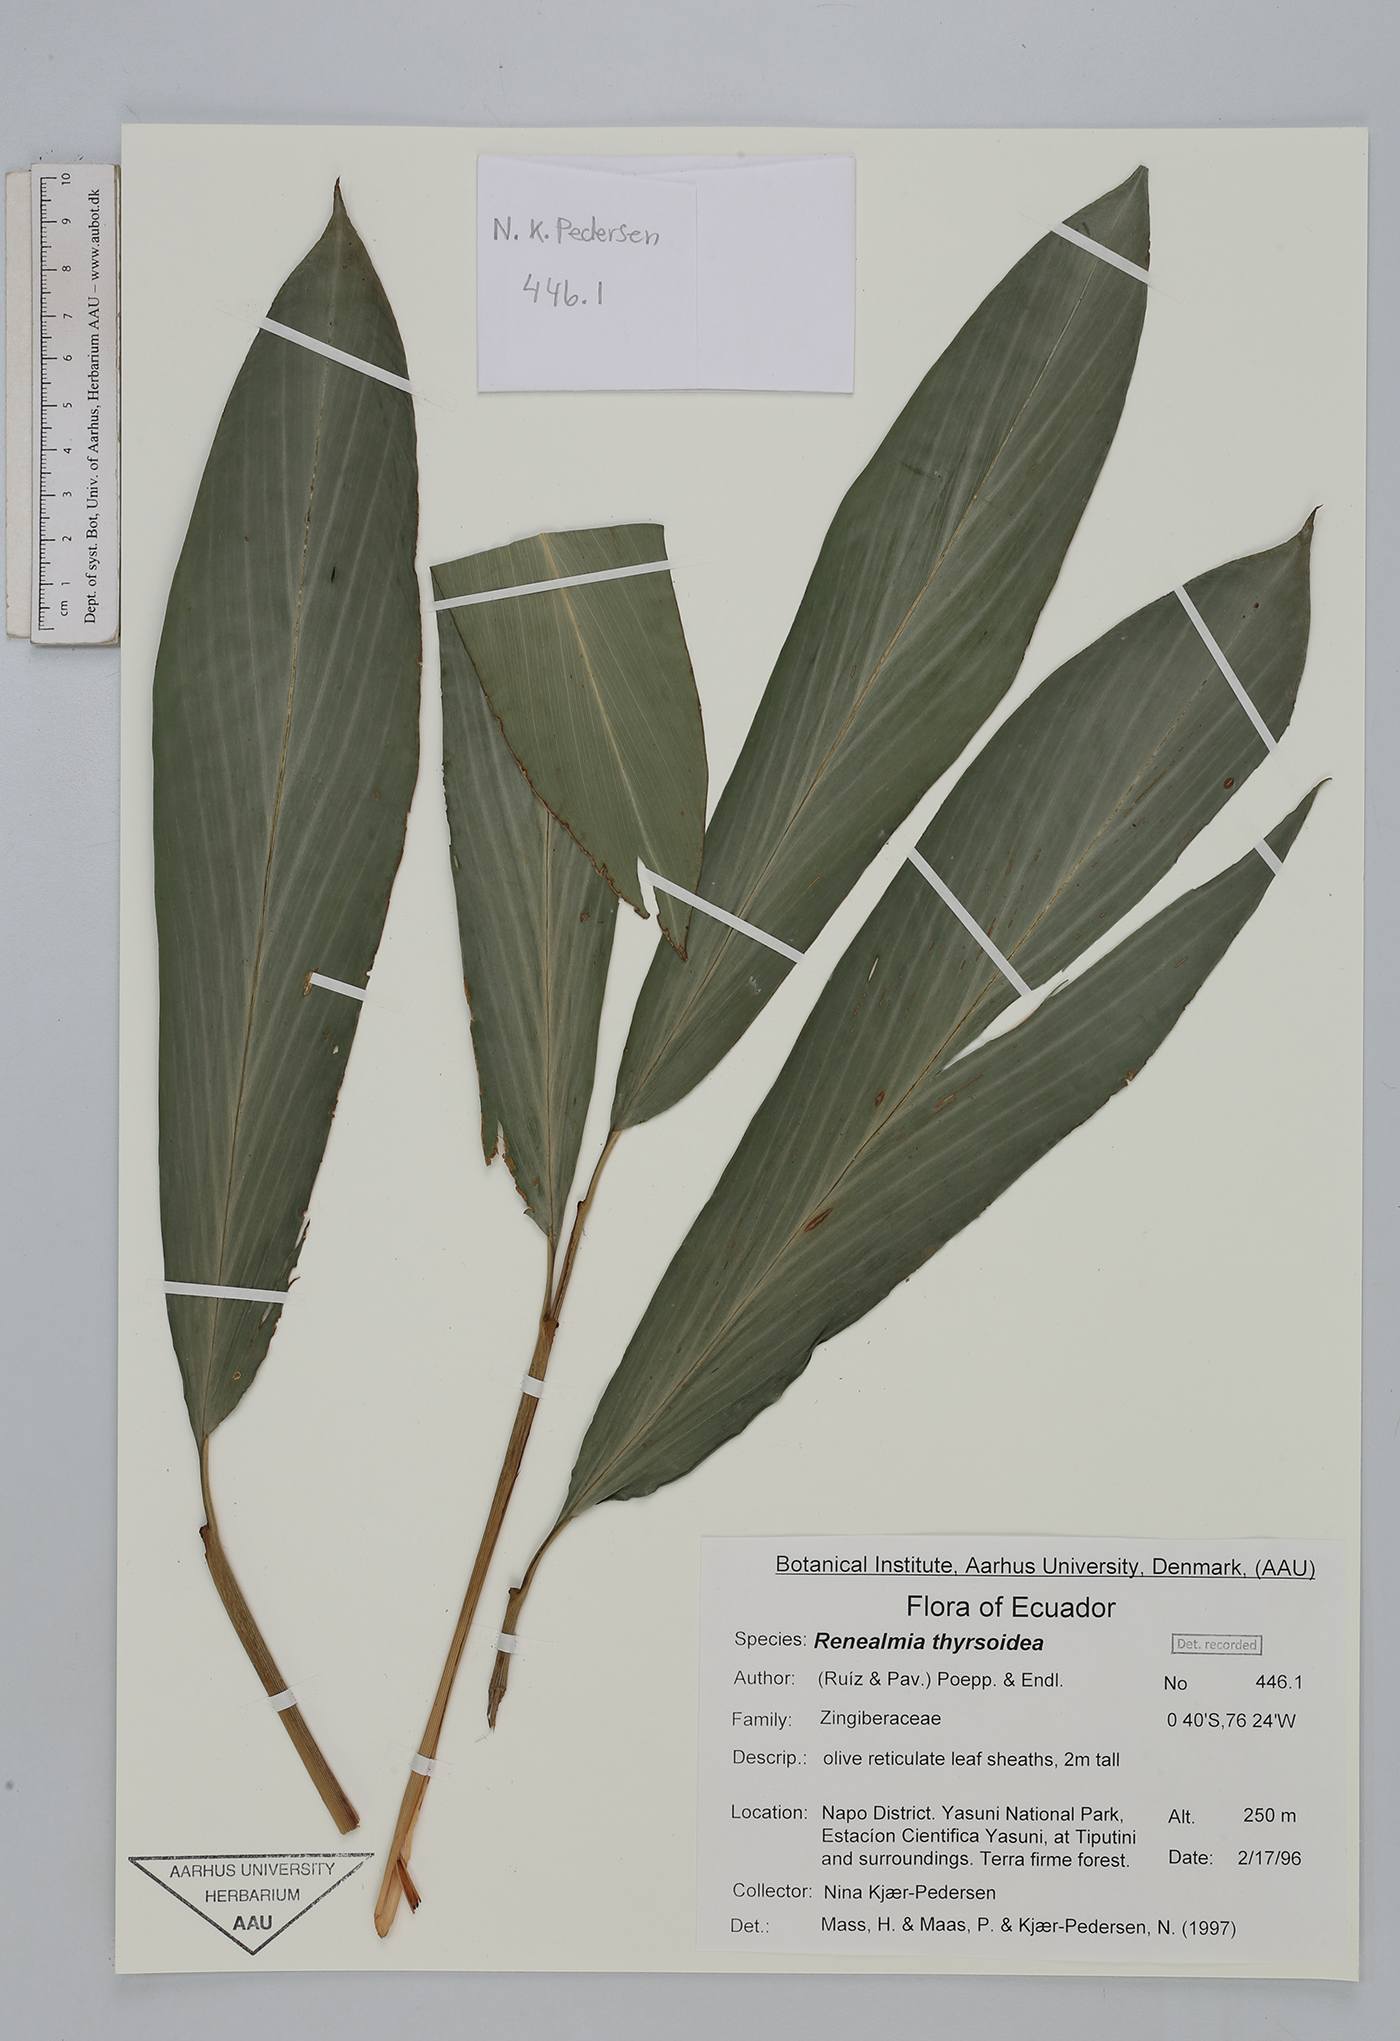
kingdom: Plantae
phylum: Tracheophyta
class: Liliopsida
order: Zingiberales
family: Zingiberaceae
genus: Renealmia
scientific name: Renealmia thyrsoidea
